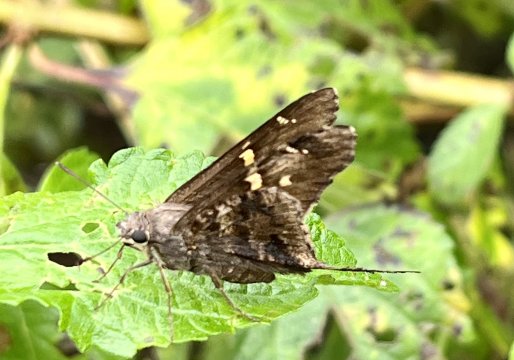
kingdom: Animalia
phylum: Arthropoda
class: Insecta
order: Lepidoptera
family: Hesperiidae
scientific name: Hesperiidae
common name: Skippers
